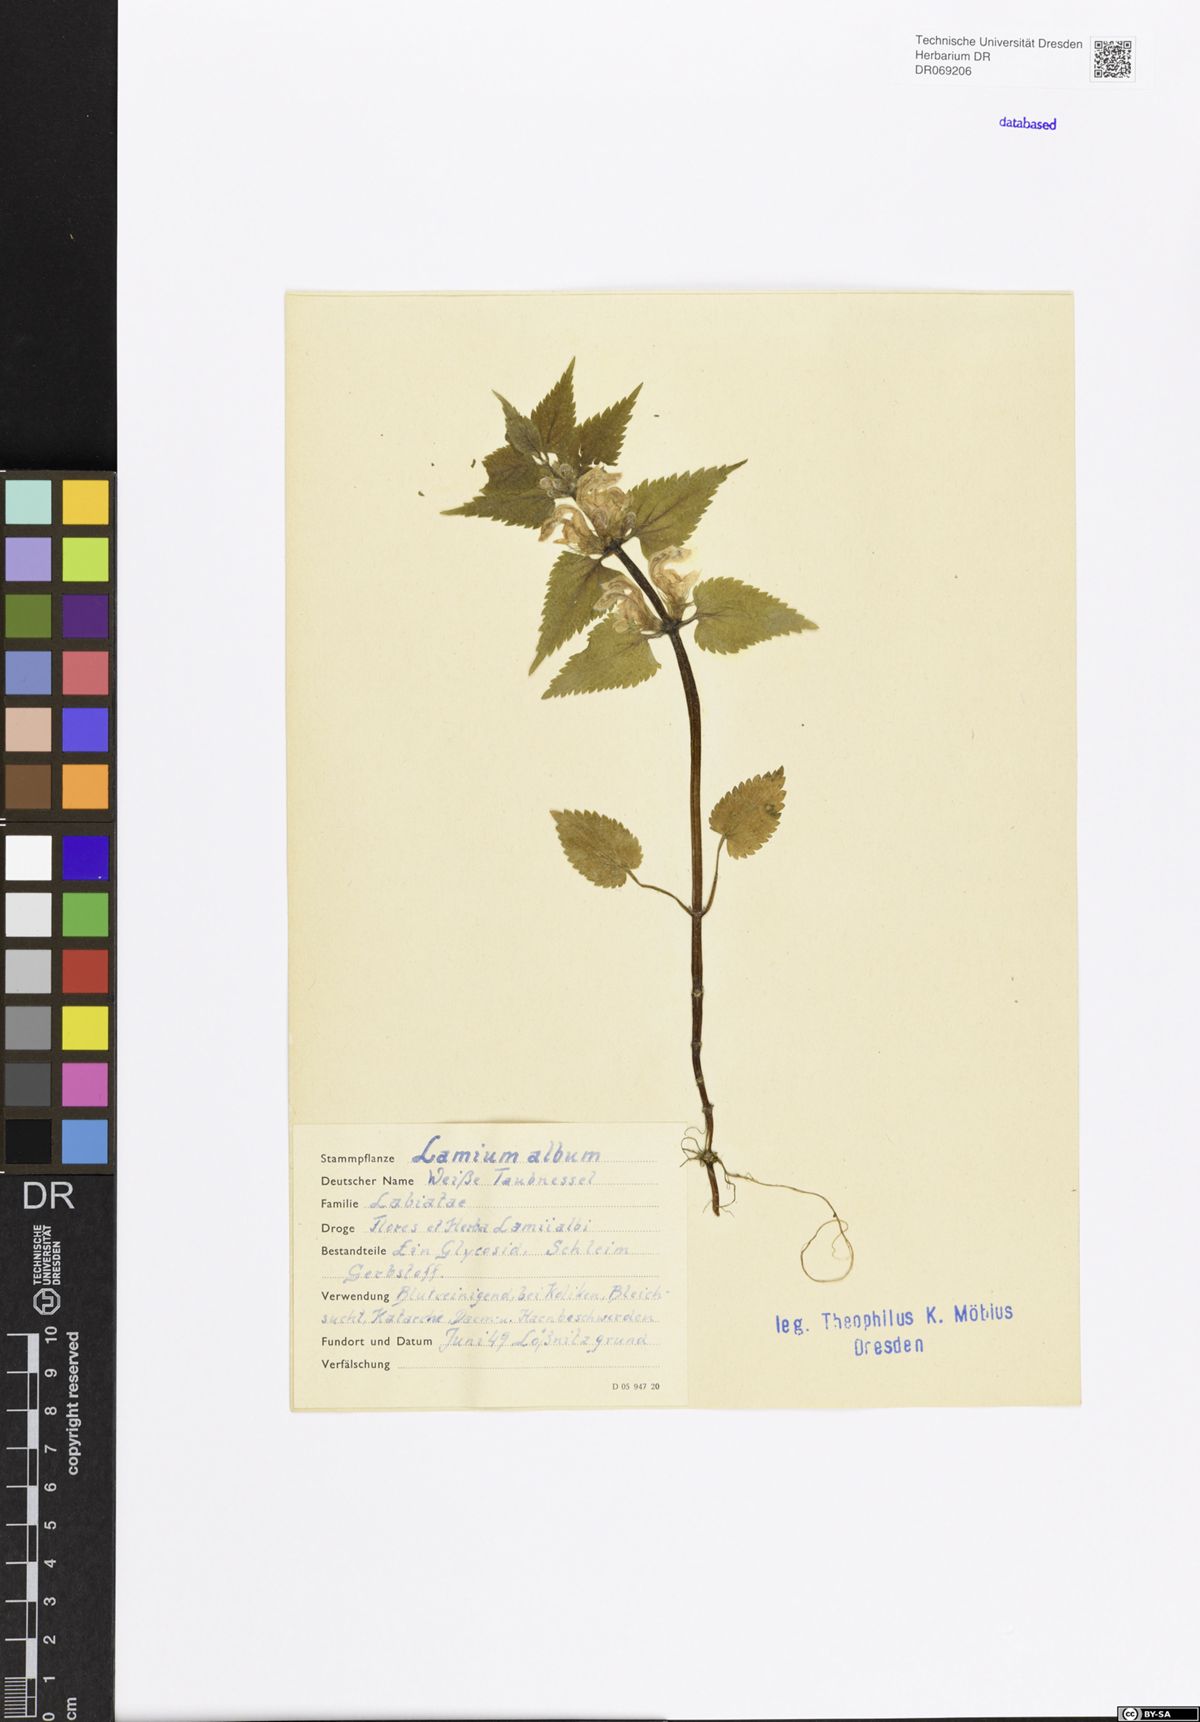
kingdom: Plantae
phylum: Tracheophyta
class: Magnoliopsida
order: Lamiales
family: Lamiaceae
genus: Lamium
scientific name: Lamium album
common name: White dead-nettle
